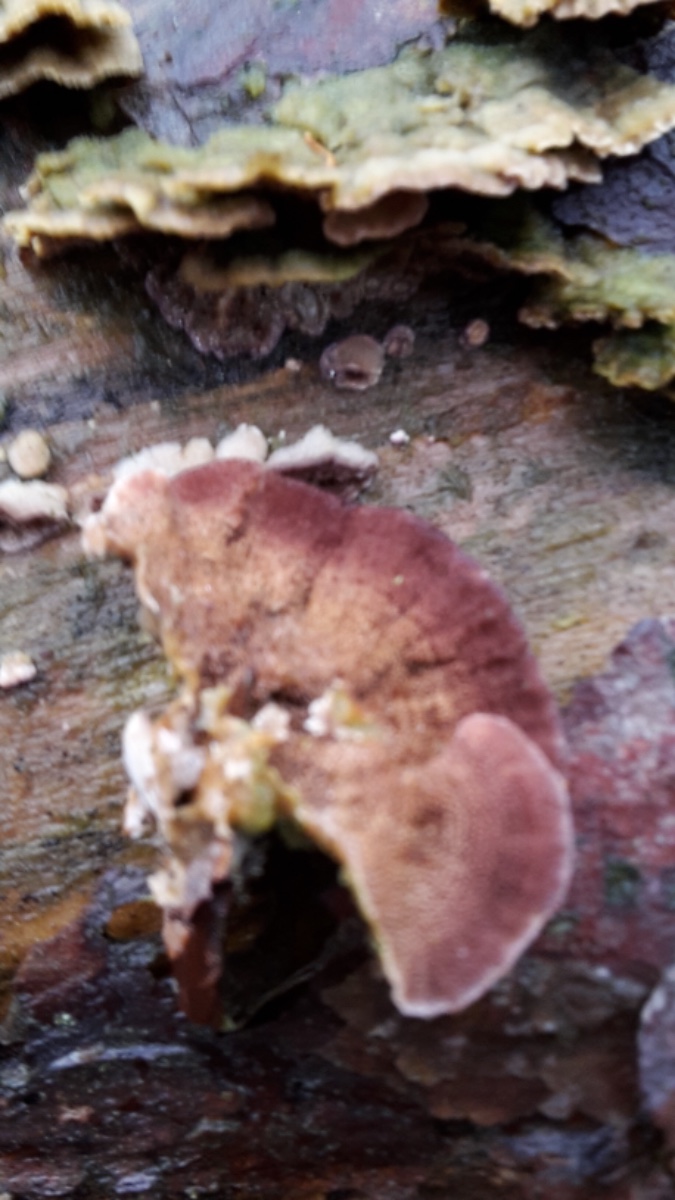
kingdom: Fungi
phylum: Basidiomycota
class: Agaricomycetes
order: Hymenochaetales
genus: Trichaptum
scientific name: Trichaptum abietinum
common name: almindelig violporesvamp
